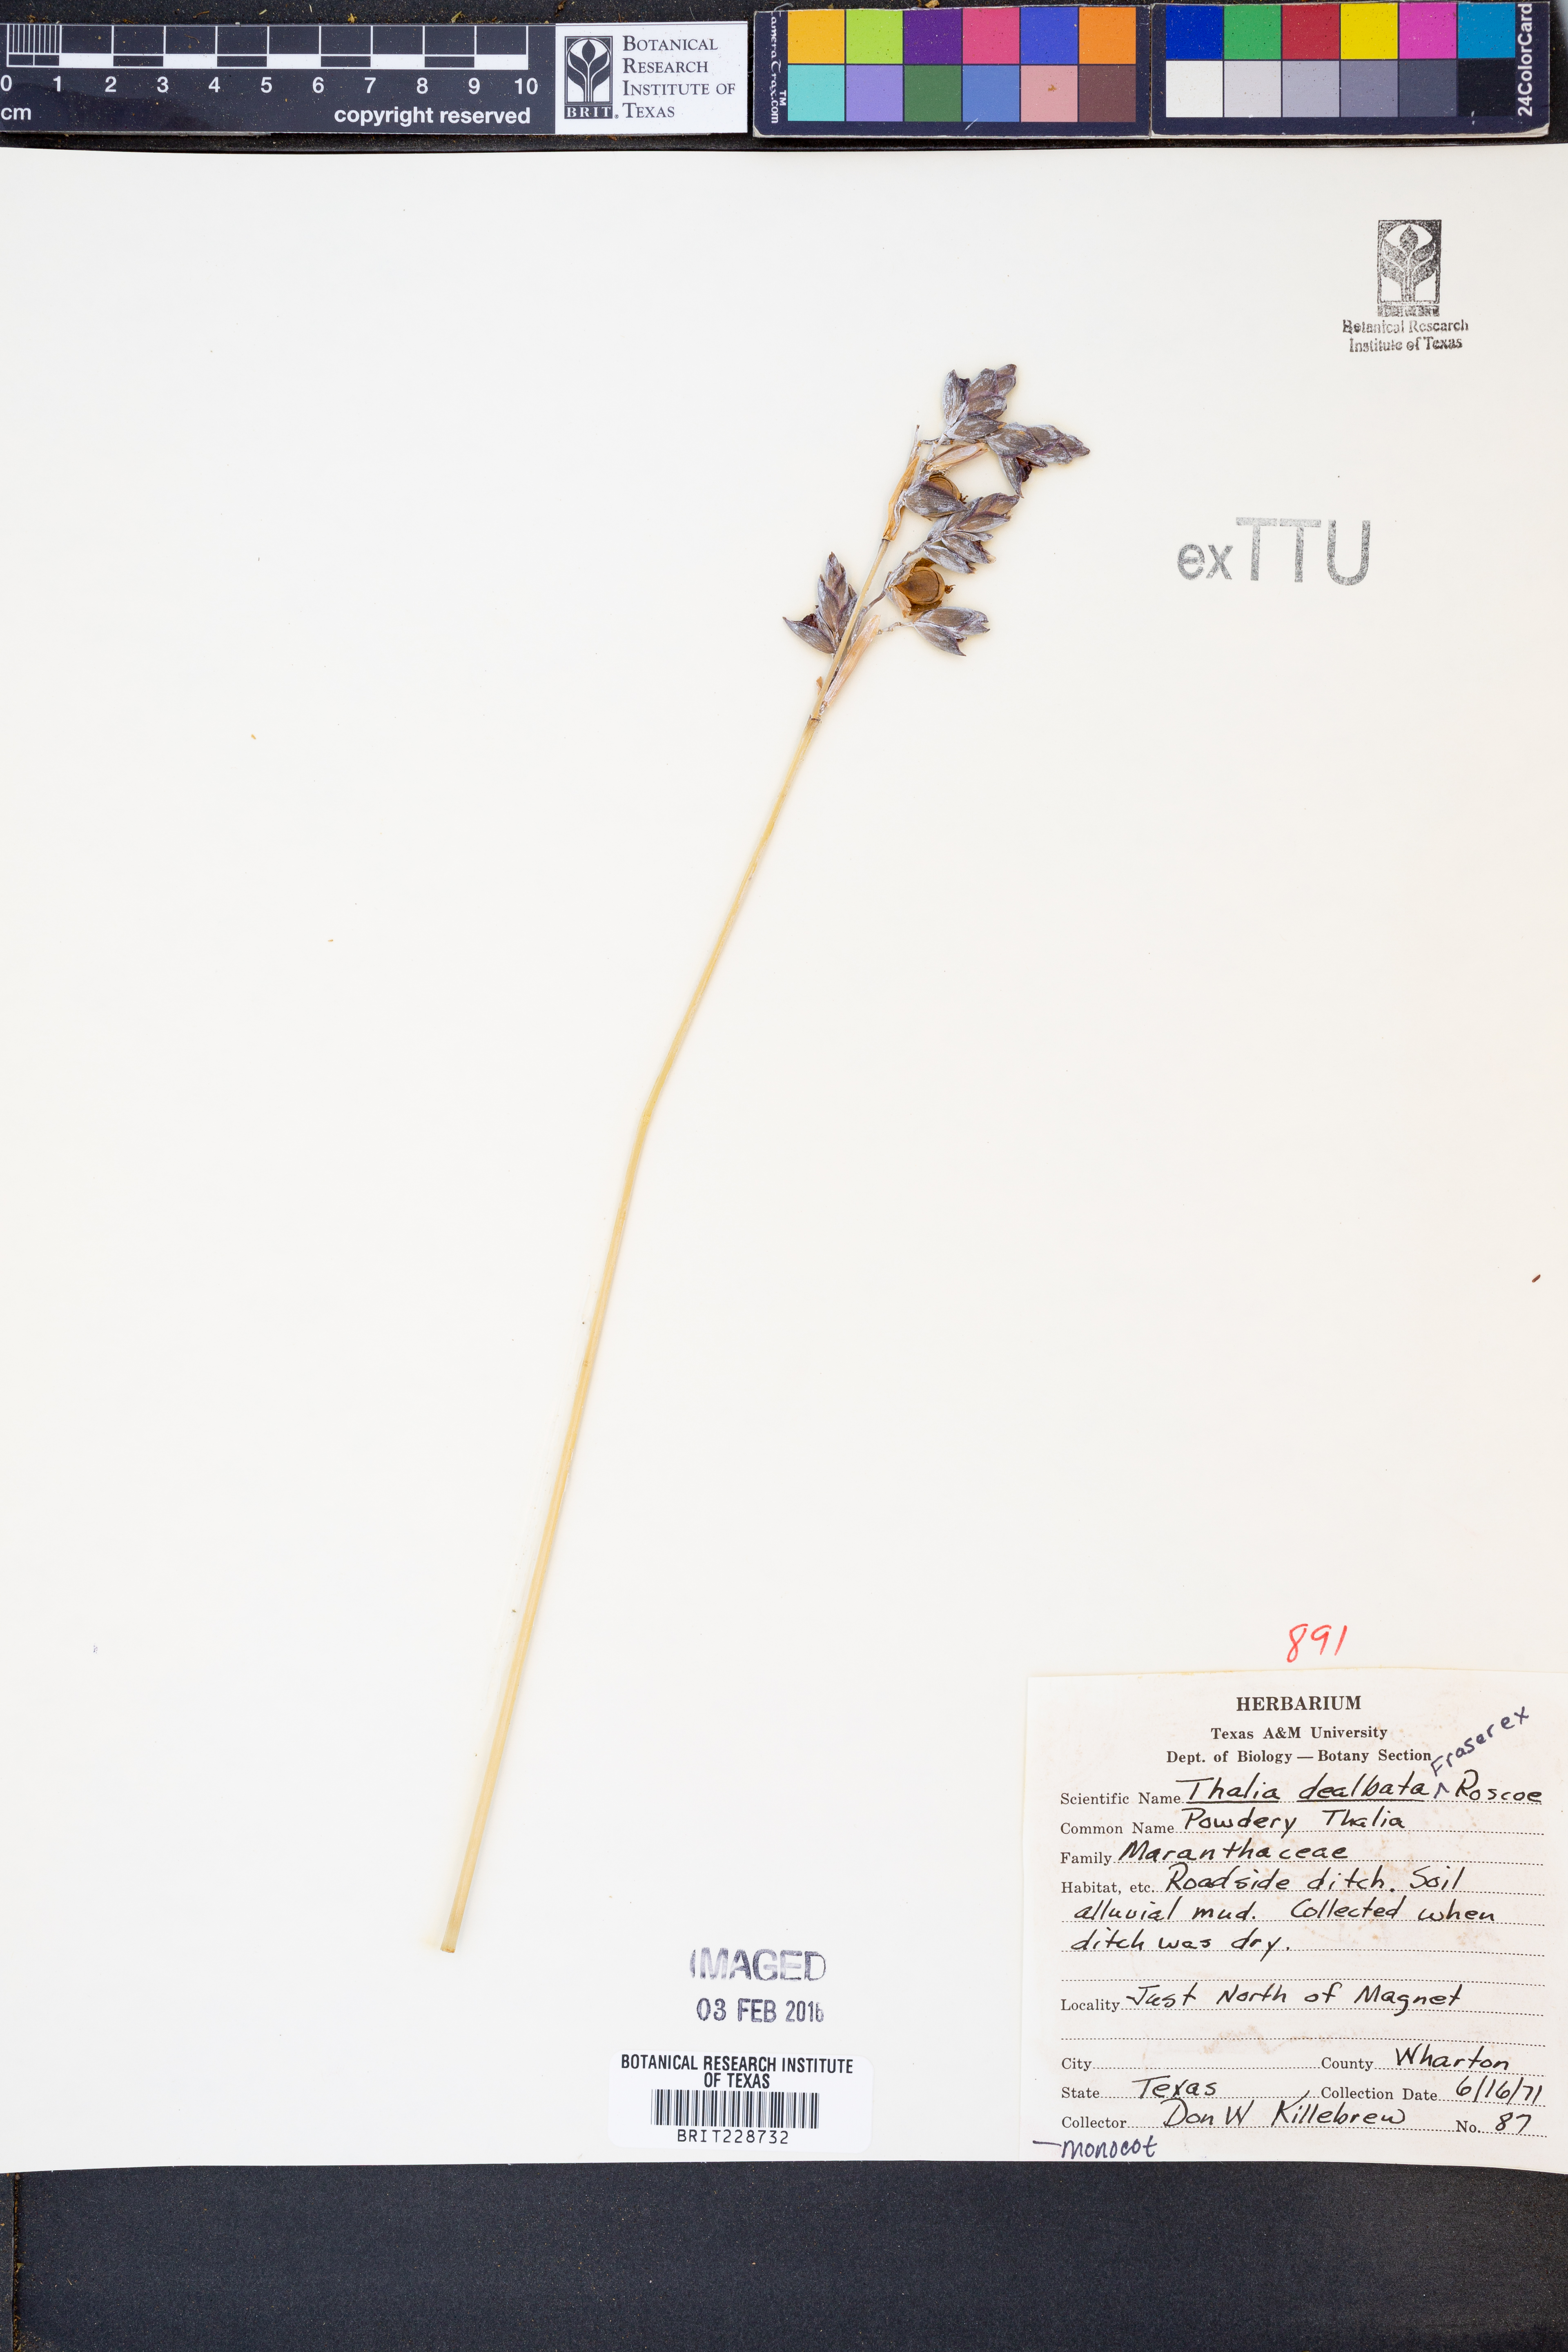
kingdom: Plantae
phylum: Tracheophyta
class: Liliopsida
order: Zingiberales
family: Marantaceae
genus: Thalia
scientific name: Thalia dealbata
